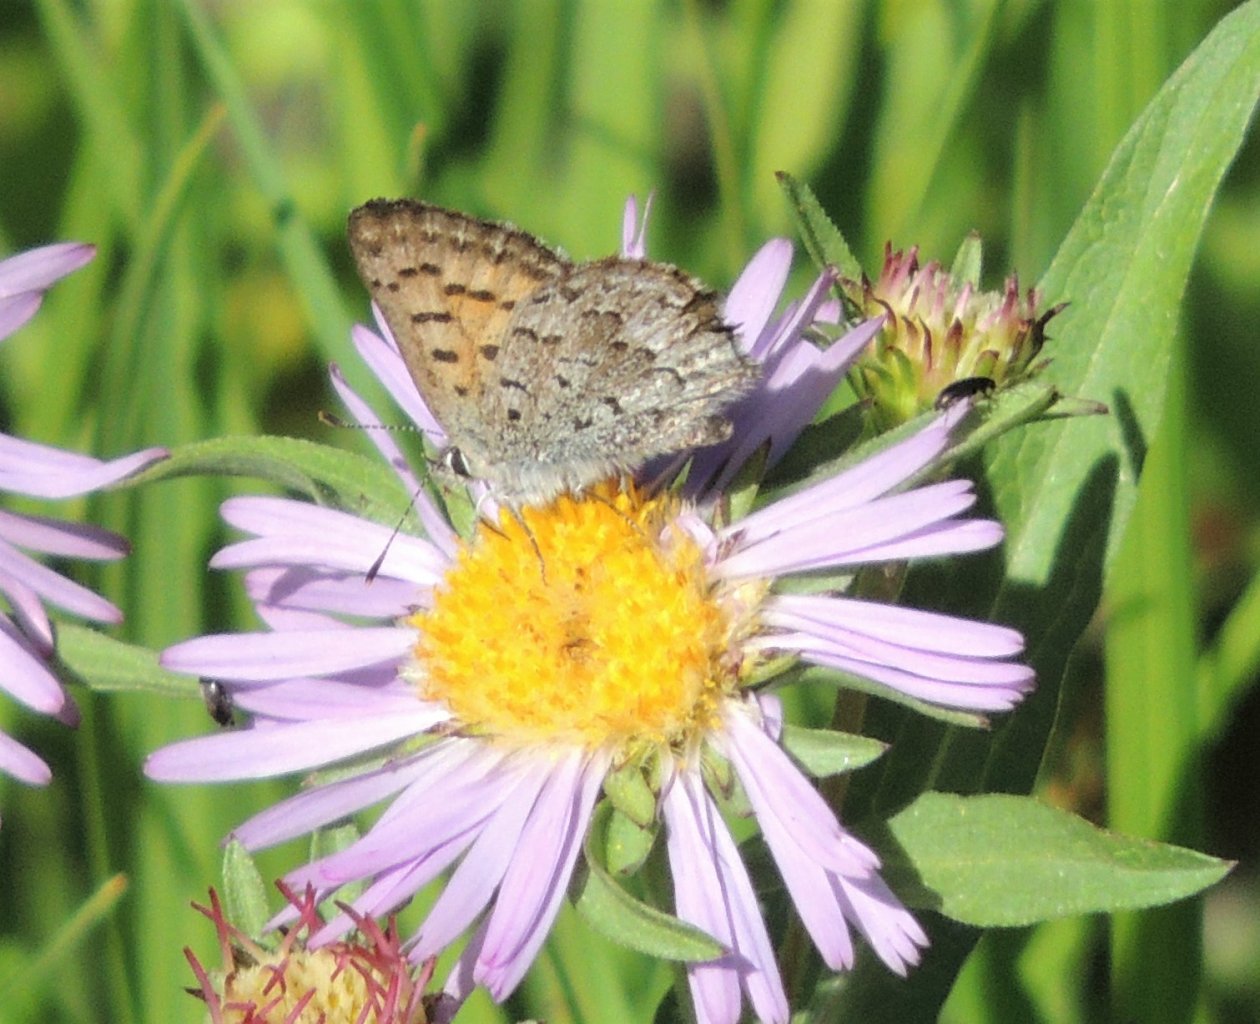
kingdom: Animalia
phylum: Arthropoda
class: Insecta
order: Lepidoptera
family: Lycaenidae
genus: Lycaena
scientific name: Lycaena mariposa
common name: Mariposa Copper
